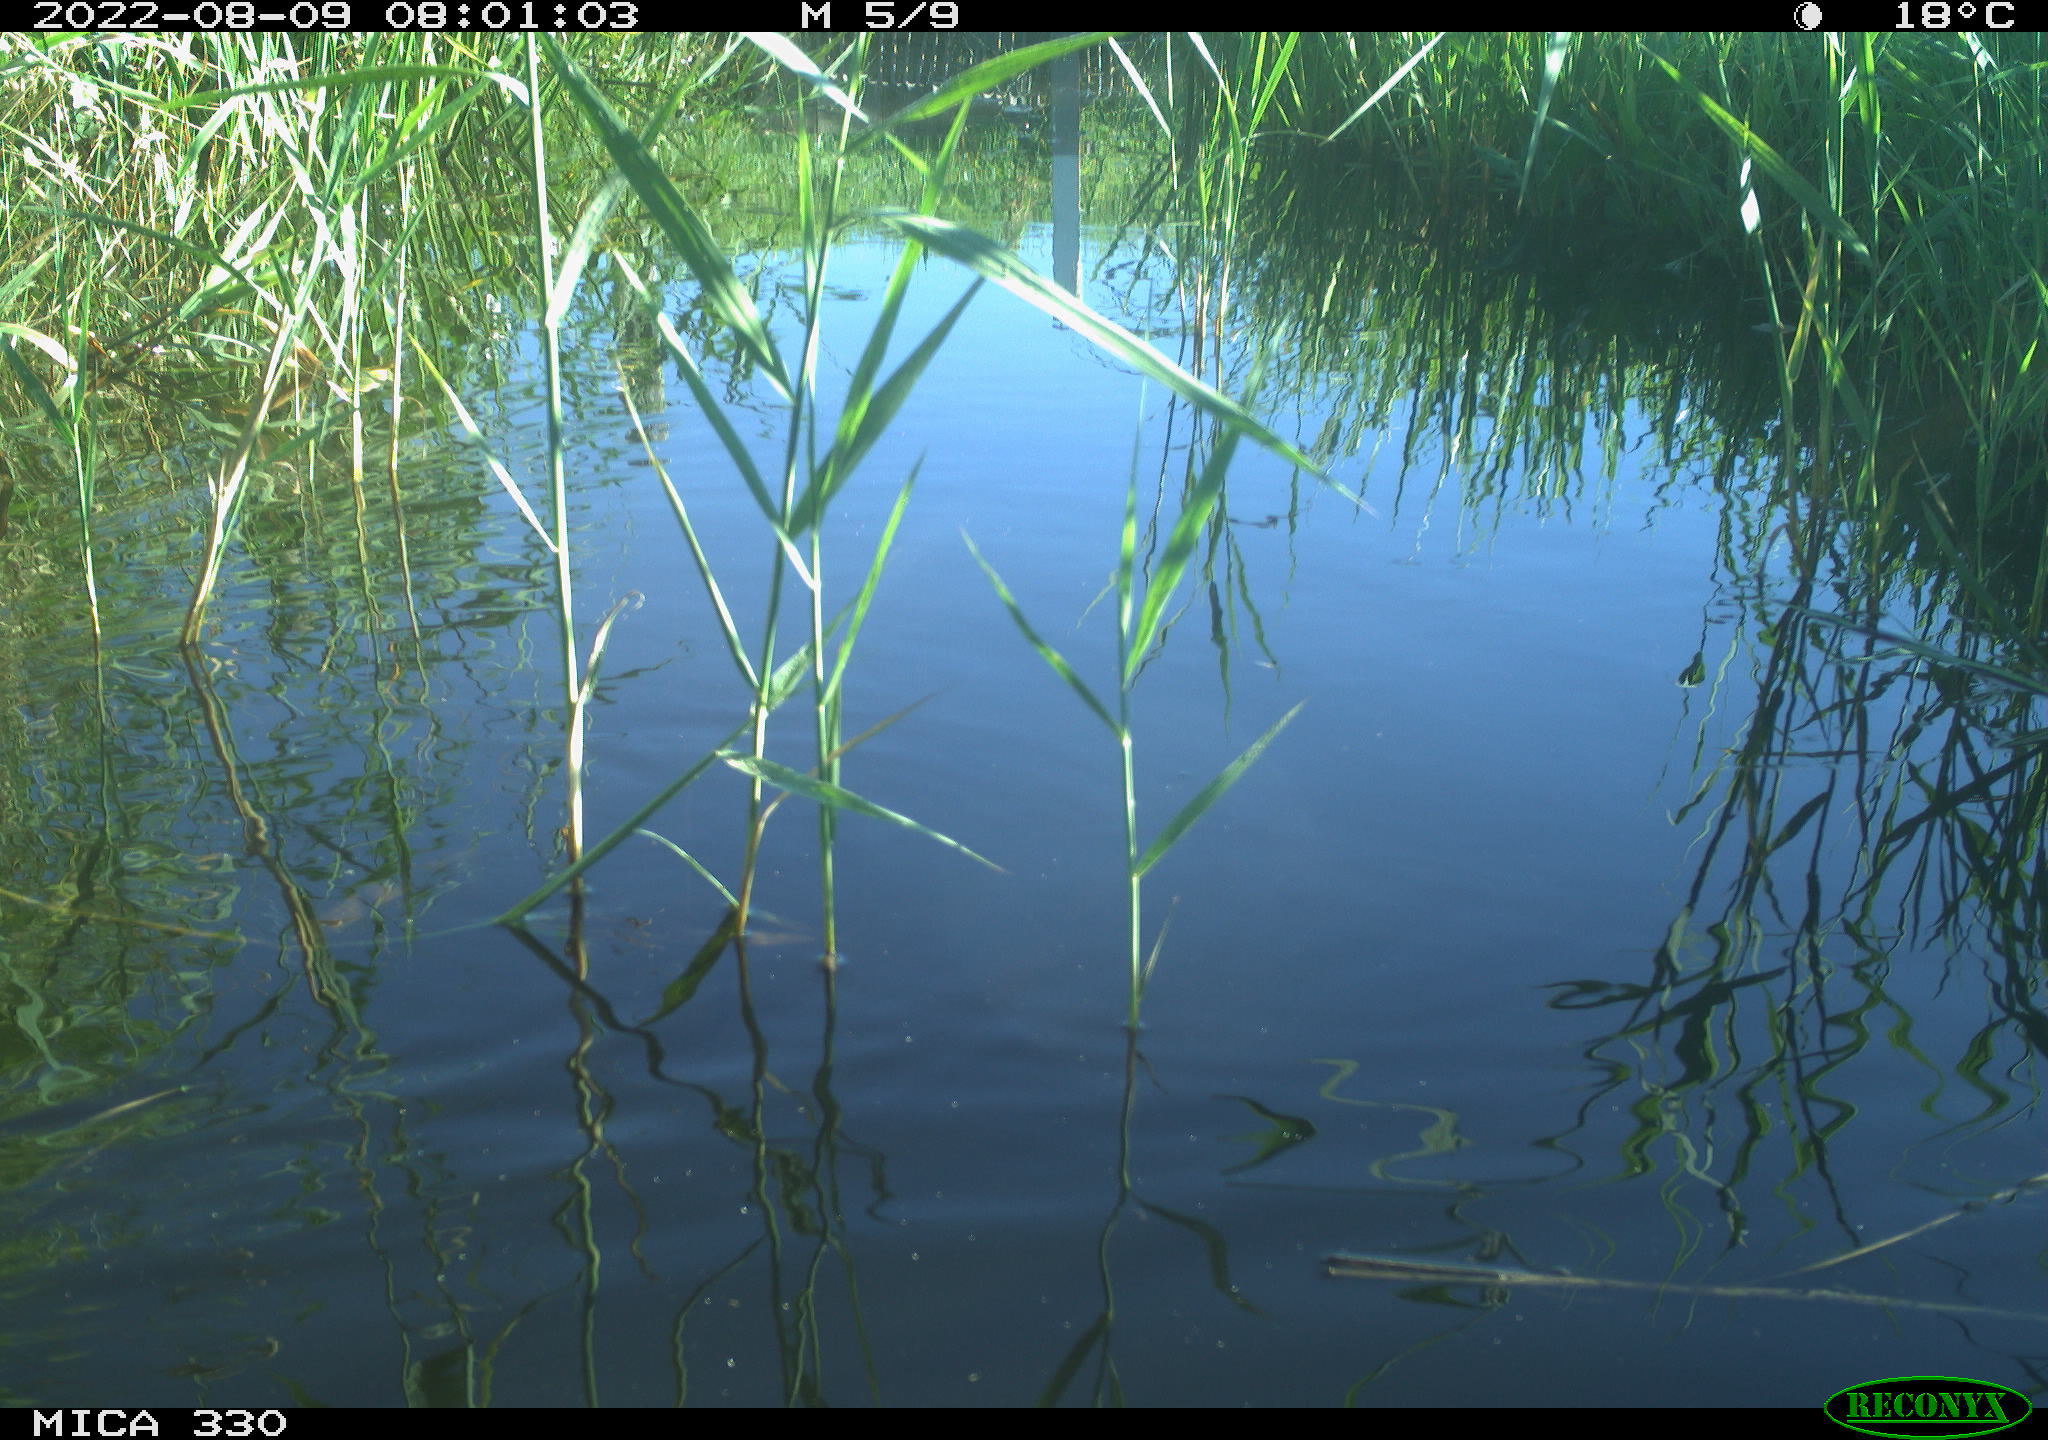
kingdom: Animalia
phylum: Chordata
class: Aves
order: Anseriformes
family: Anatidae
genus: Mareca
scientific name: Mareca strepera
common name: Gadwall
